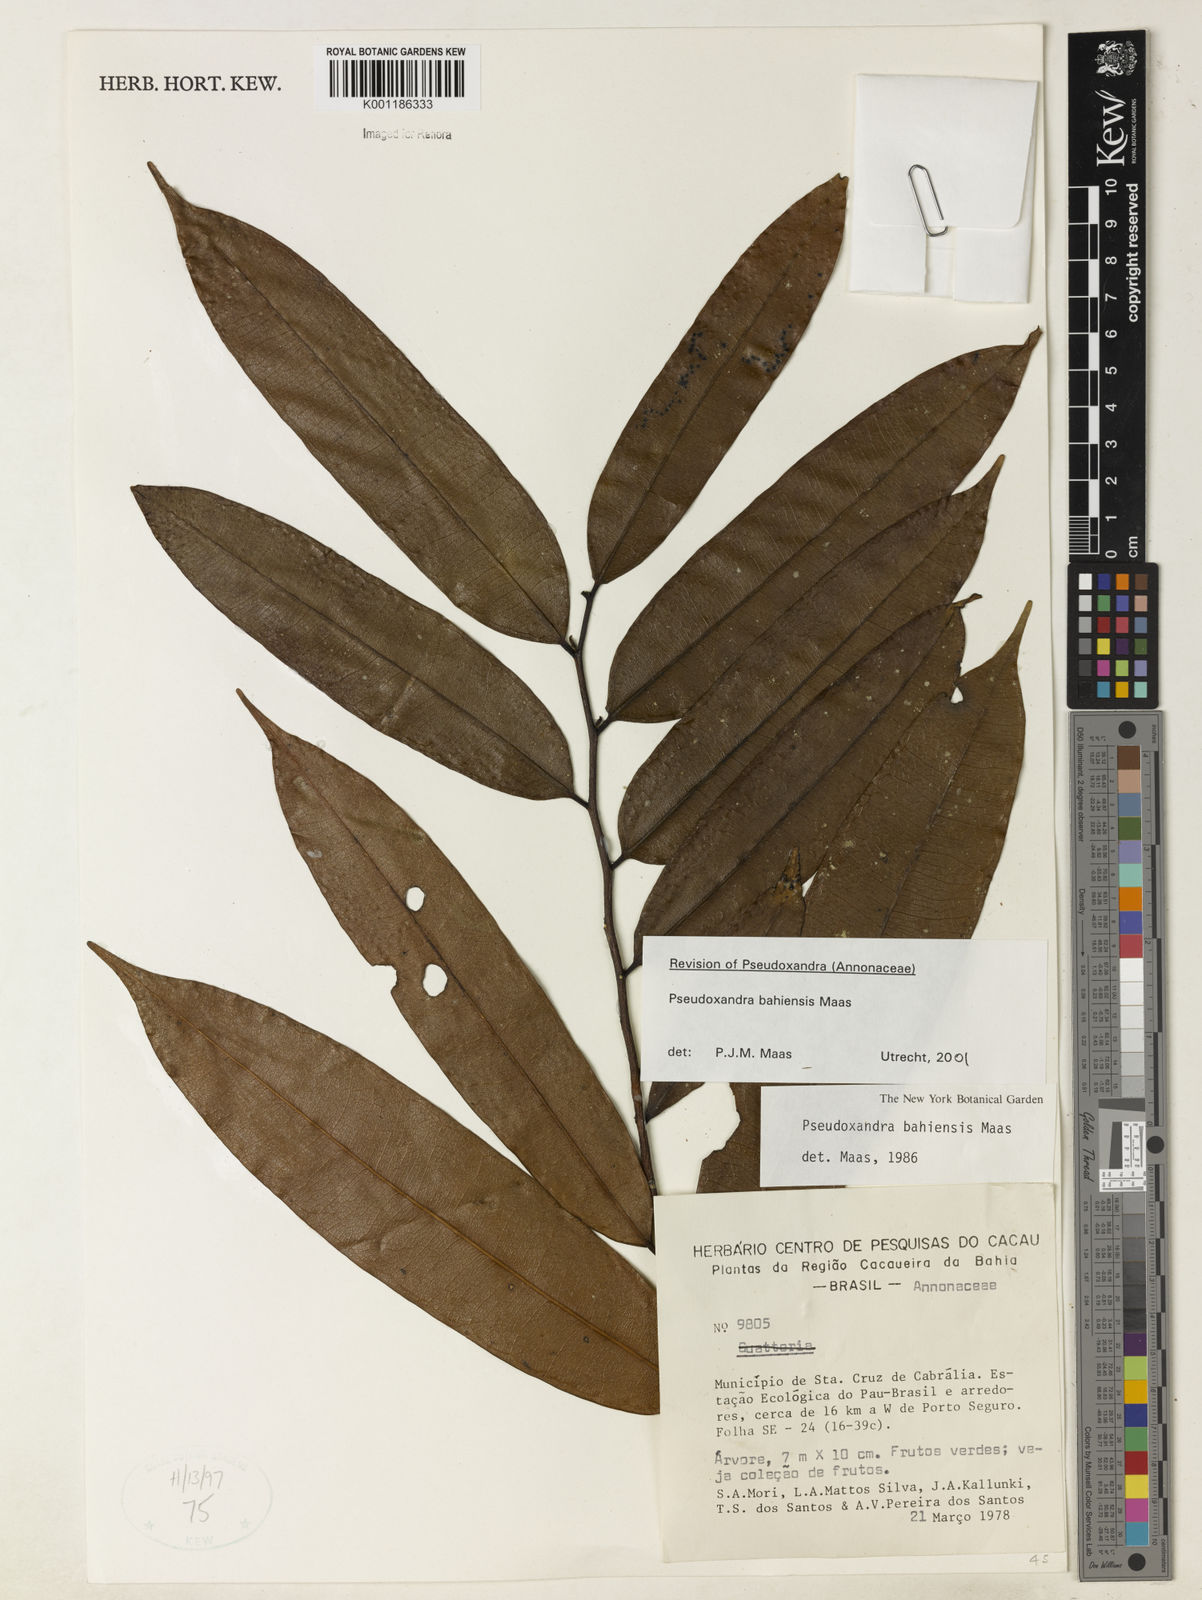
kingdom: Plantae
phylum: Tracheophyta
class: Magnoliopsida
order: Magnoliales
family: Annonaceae
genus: Pseudoxandra
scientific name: Pseudoxandra bahiensis
